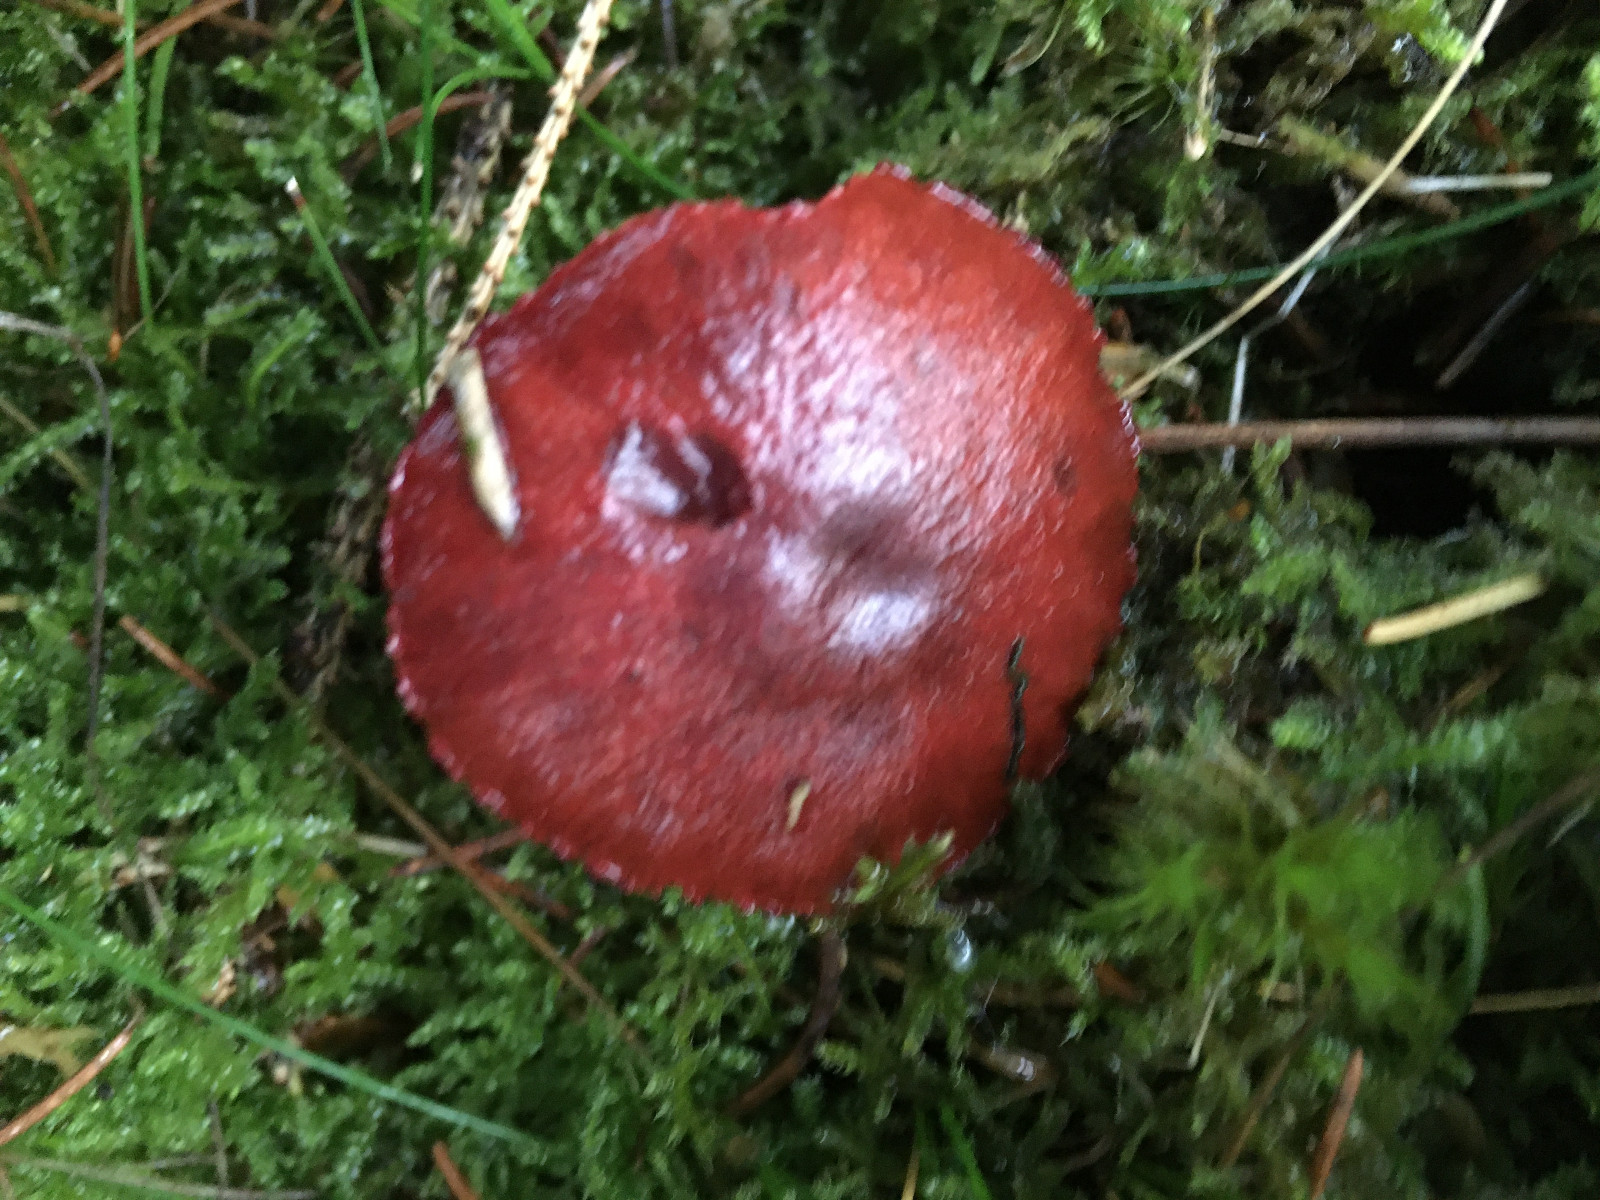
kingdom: Fungi
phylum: Basidiomycota
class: Agaricomycetes
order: Agaricales
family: Cortinariaceae
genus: Cortinarius
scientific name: Cortinarius sanguineus
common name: blodrød slørhat
